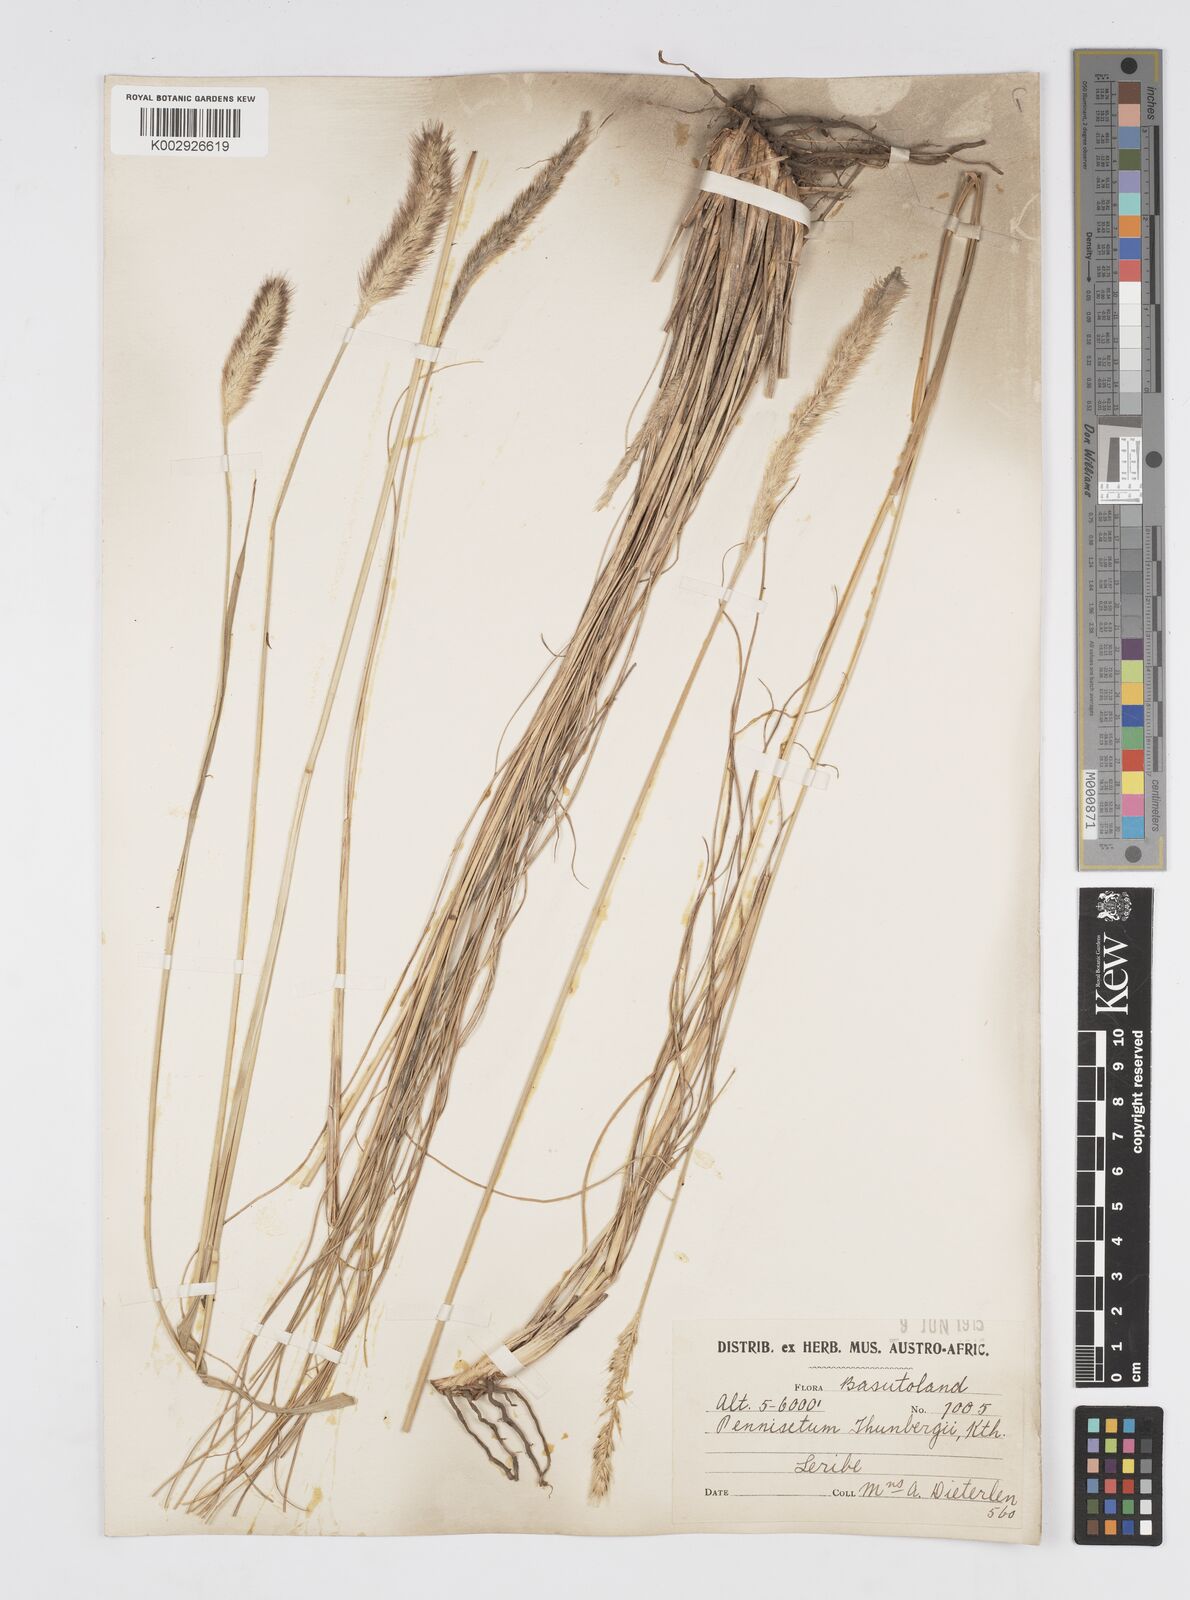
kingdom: Plantae
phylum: Tracheophyta
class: Liliopsida
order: Poales
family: Poaceae
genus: Cenchrus
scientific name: Cenchrus geniculatus
